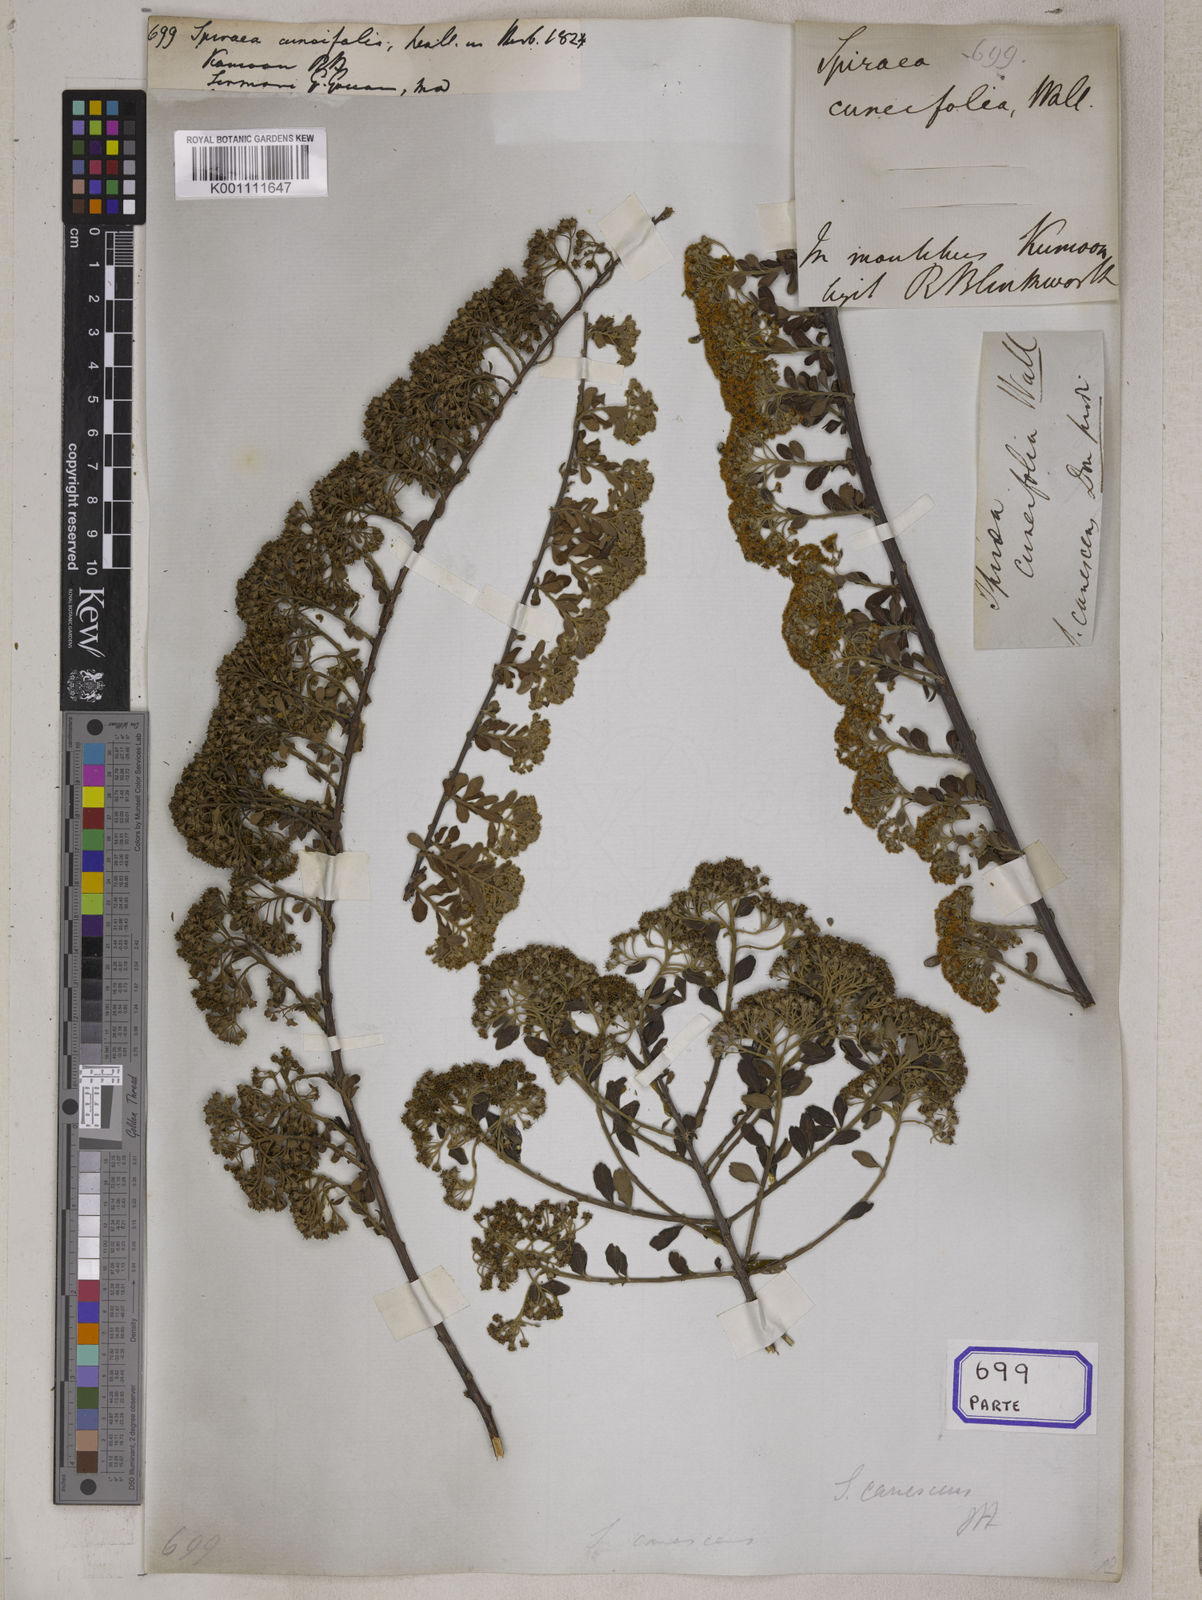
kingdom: Plantae
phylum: Tracheophyta
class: Magnoliopsida
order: Rosales
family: Rosaceae
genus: Spiraea
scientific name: Spiraea
